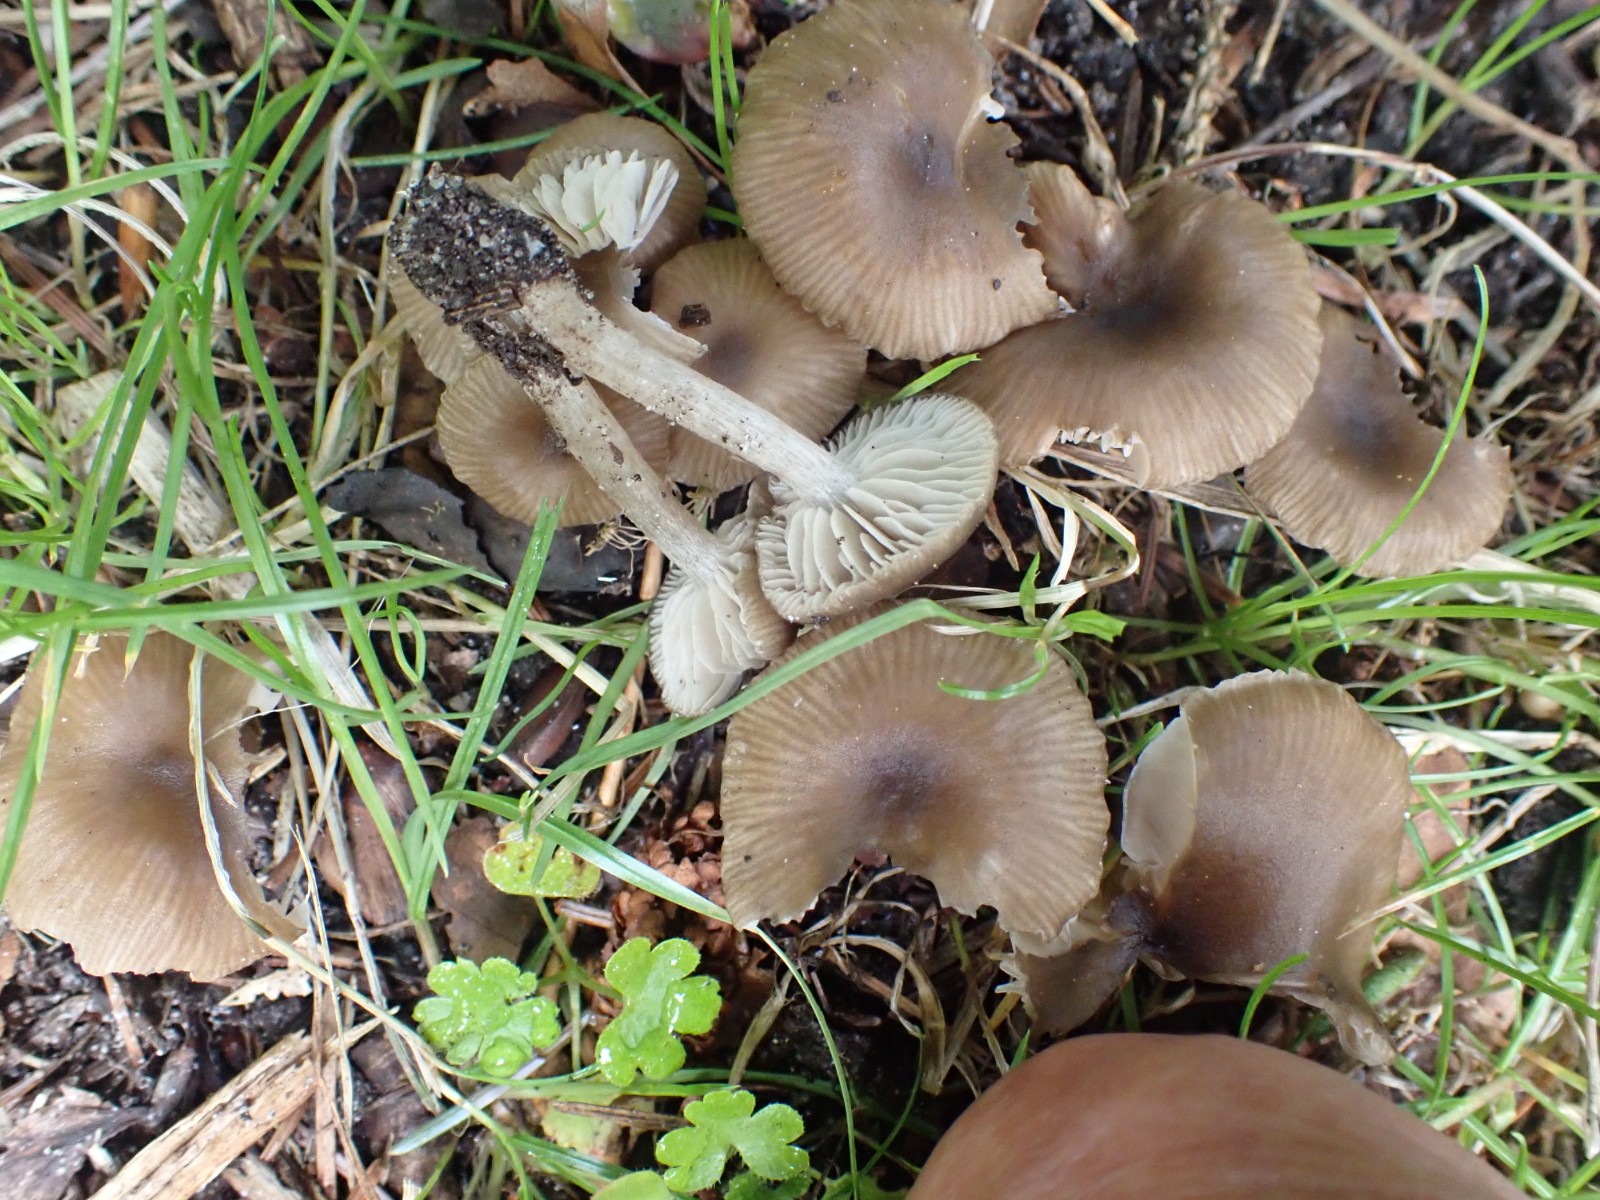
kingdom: Fungi
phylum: Basidiomycota
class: Agaricomycetes
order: Agaricales
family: Entolomataceae
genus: Entoloma
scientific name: Entoloma subradiatum
